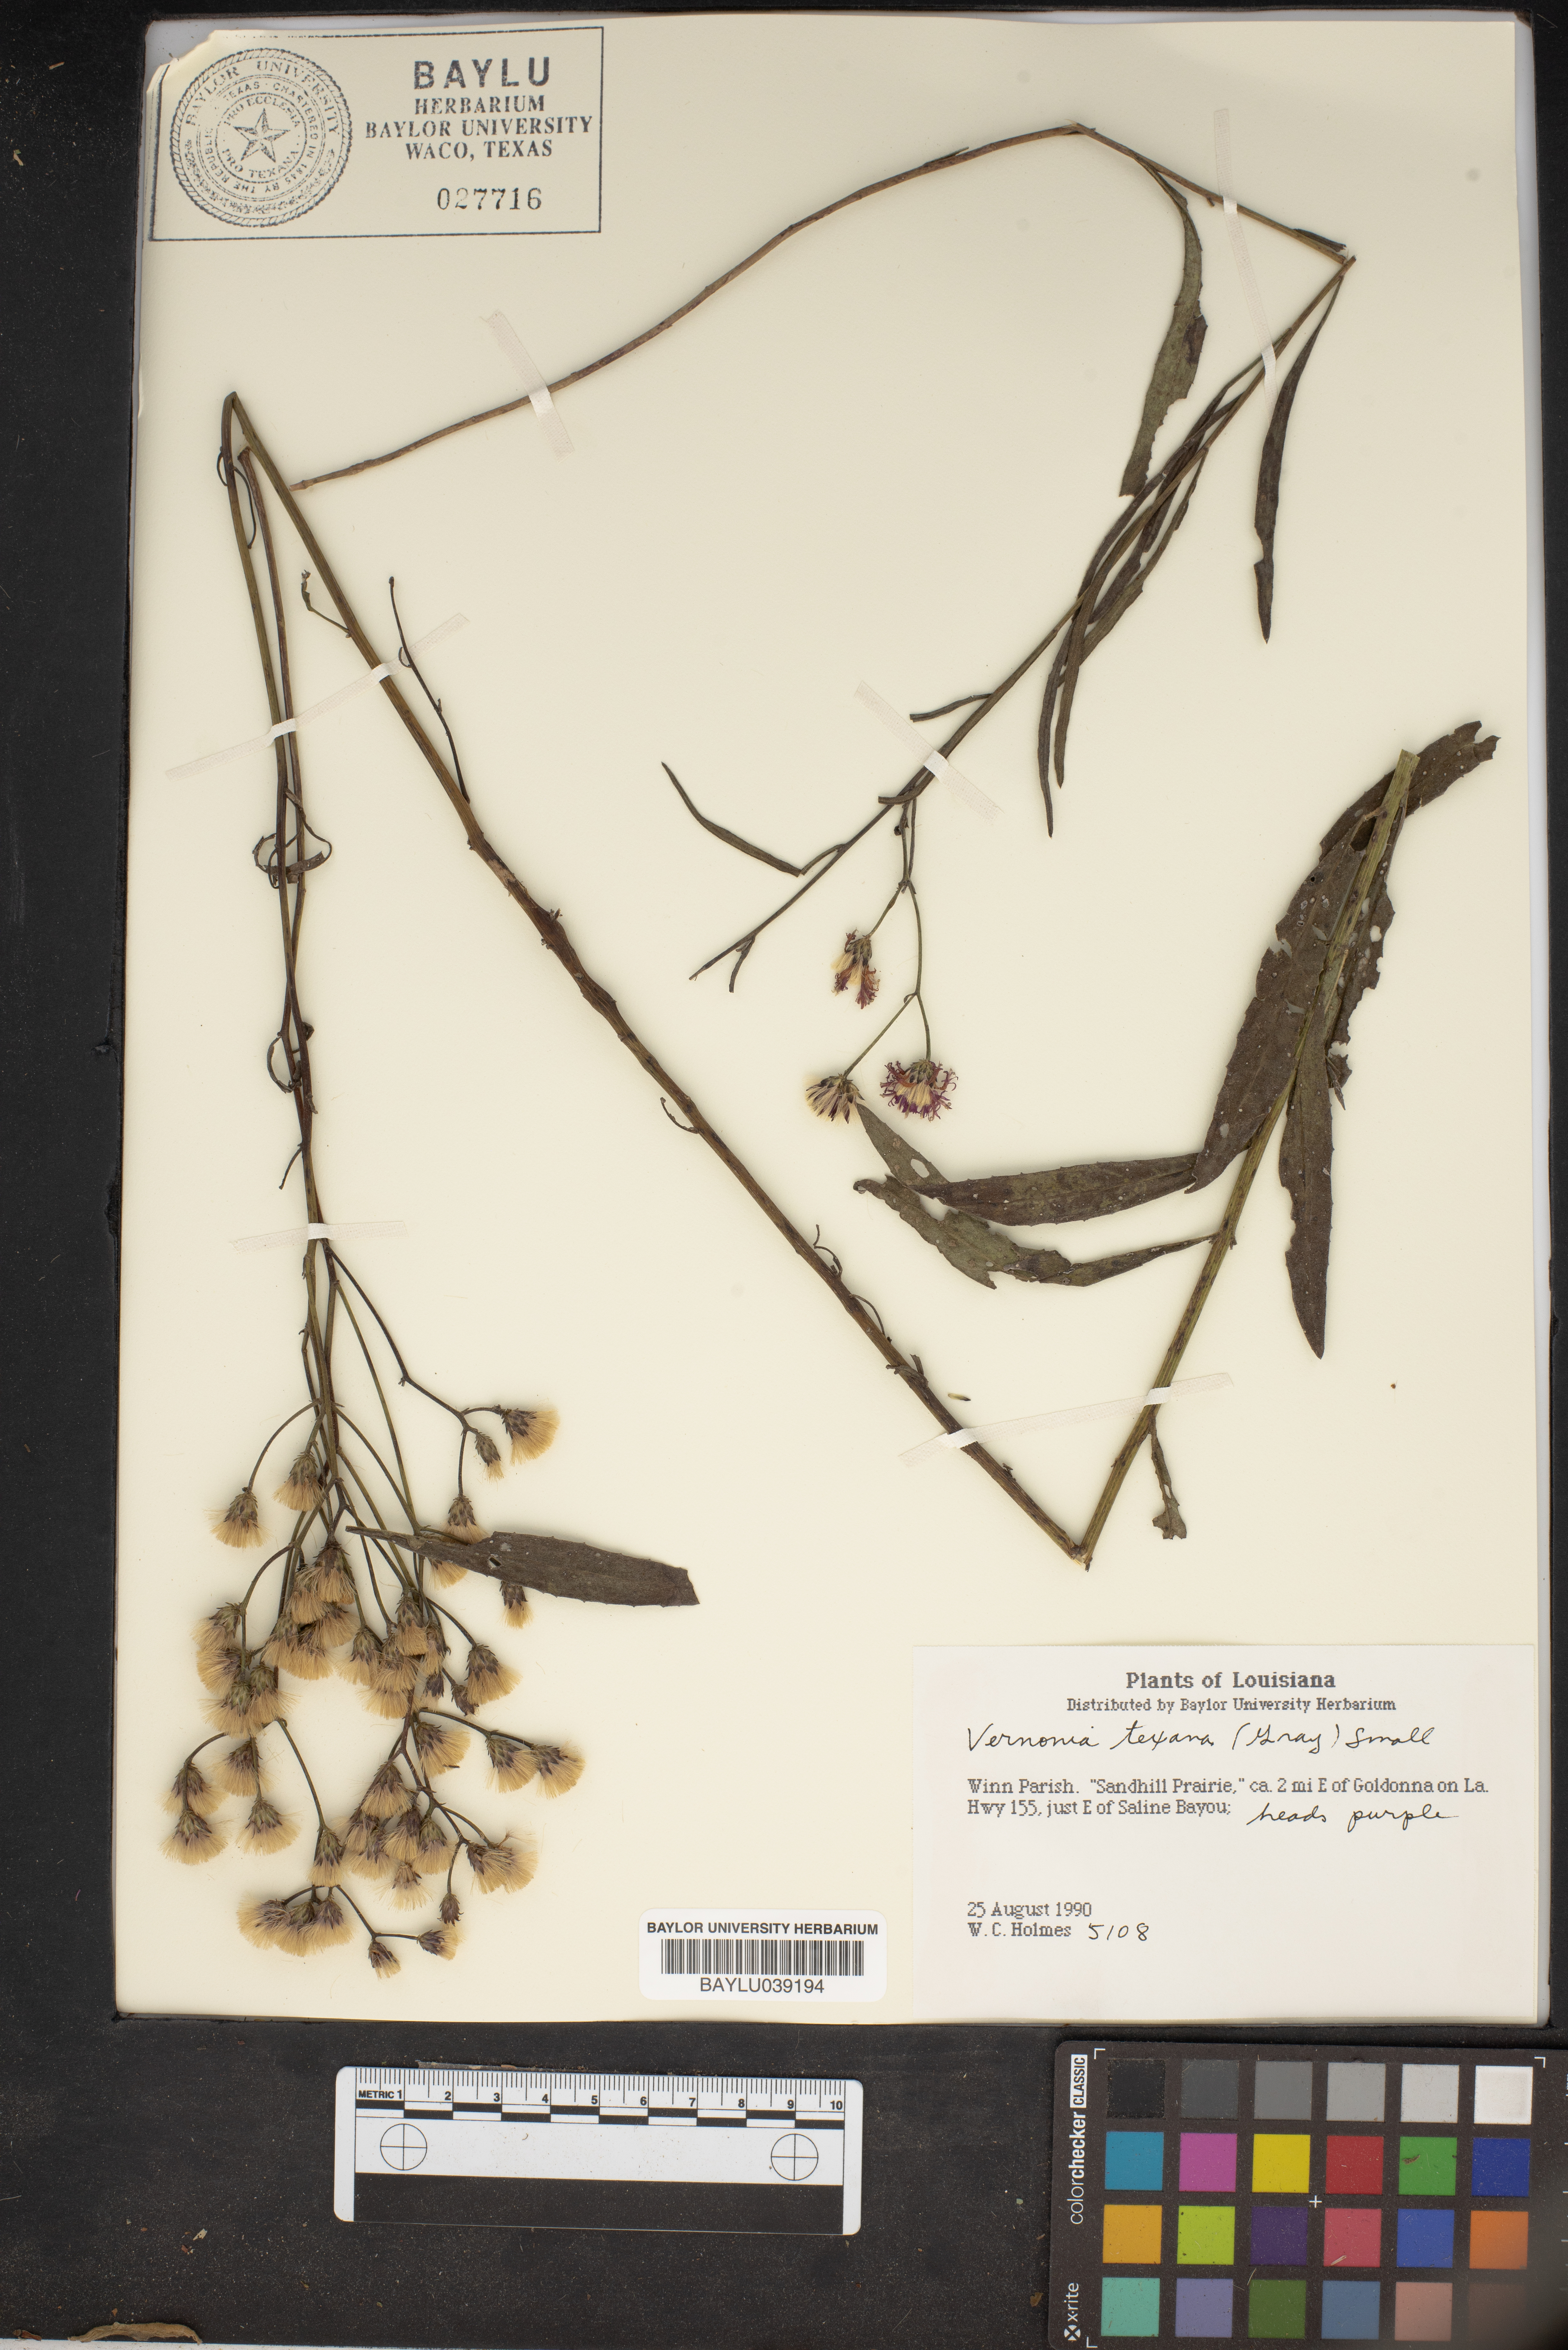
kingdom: Plantae
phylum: Tracheophyta
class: Magnoliopsida
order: Asterales
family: Asteraceae
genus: Vernonia
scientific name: Vernonia texana
